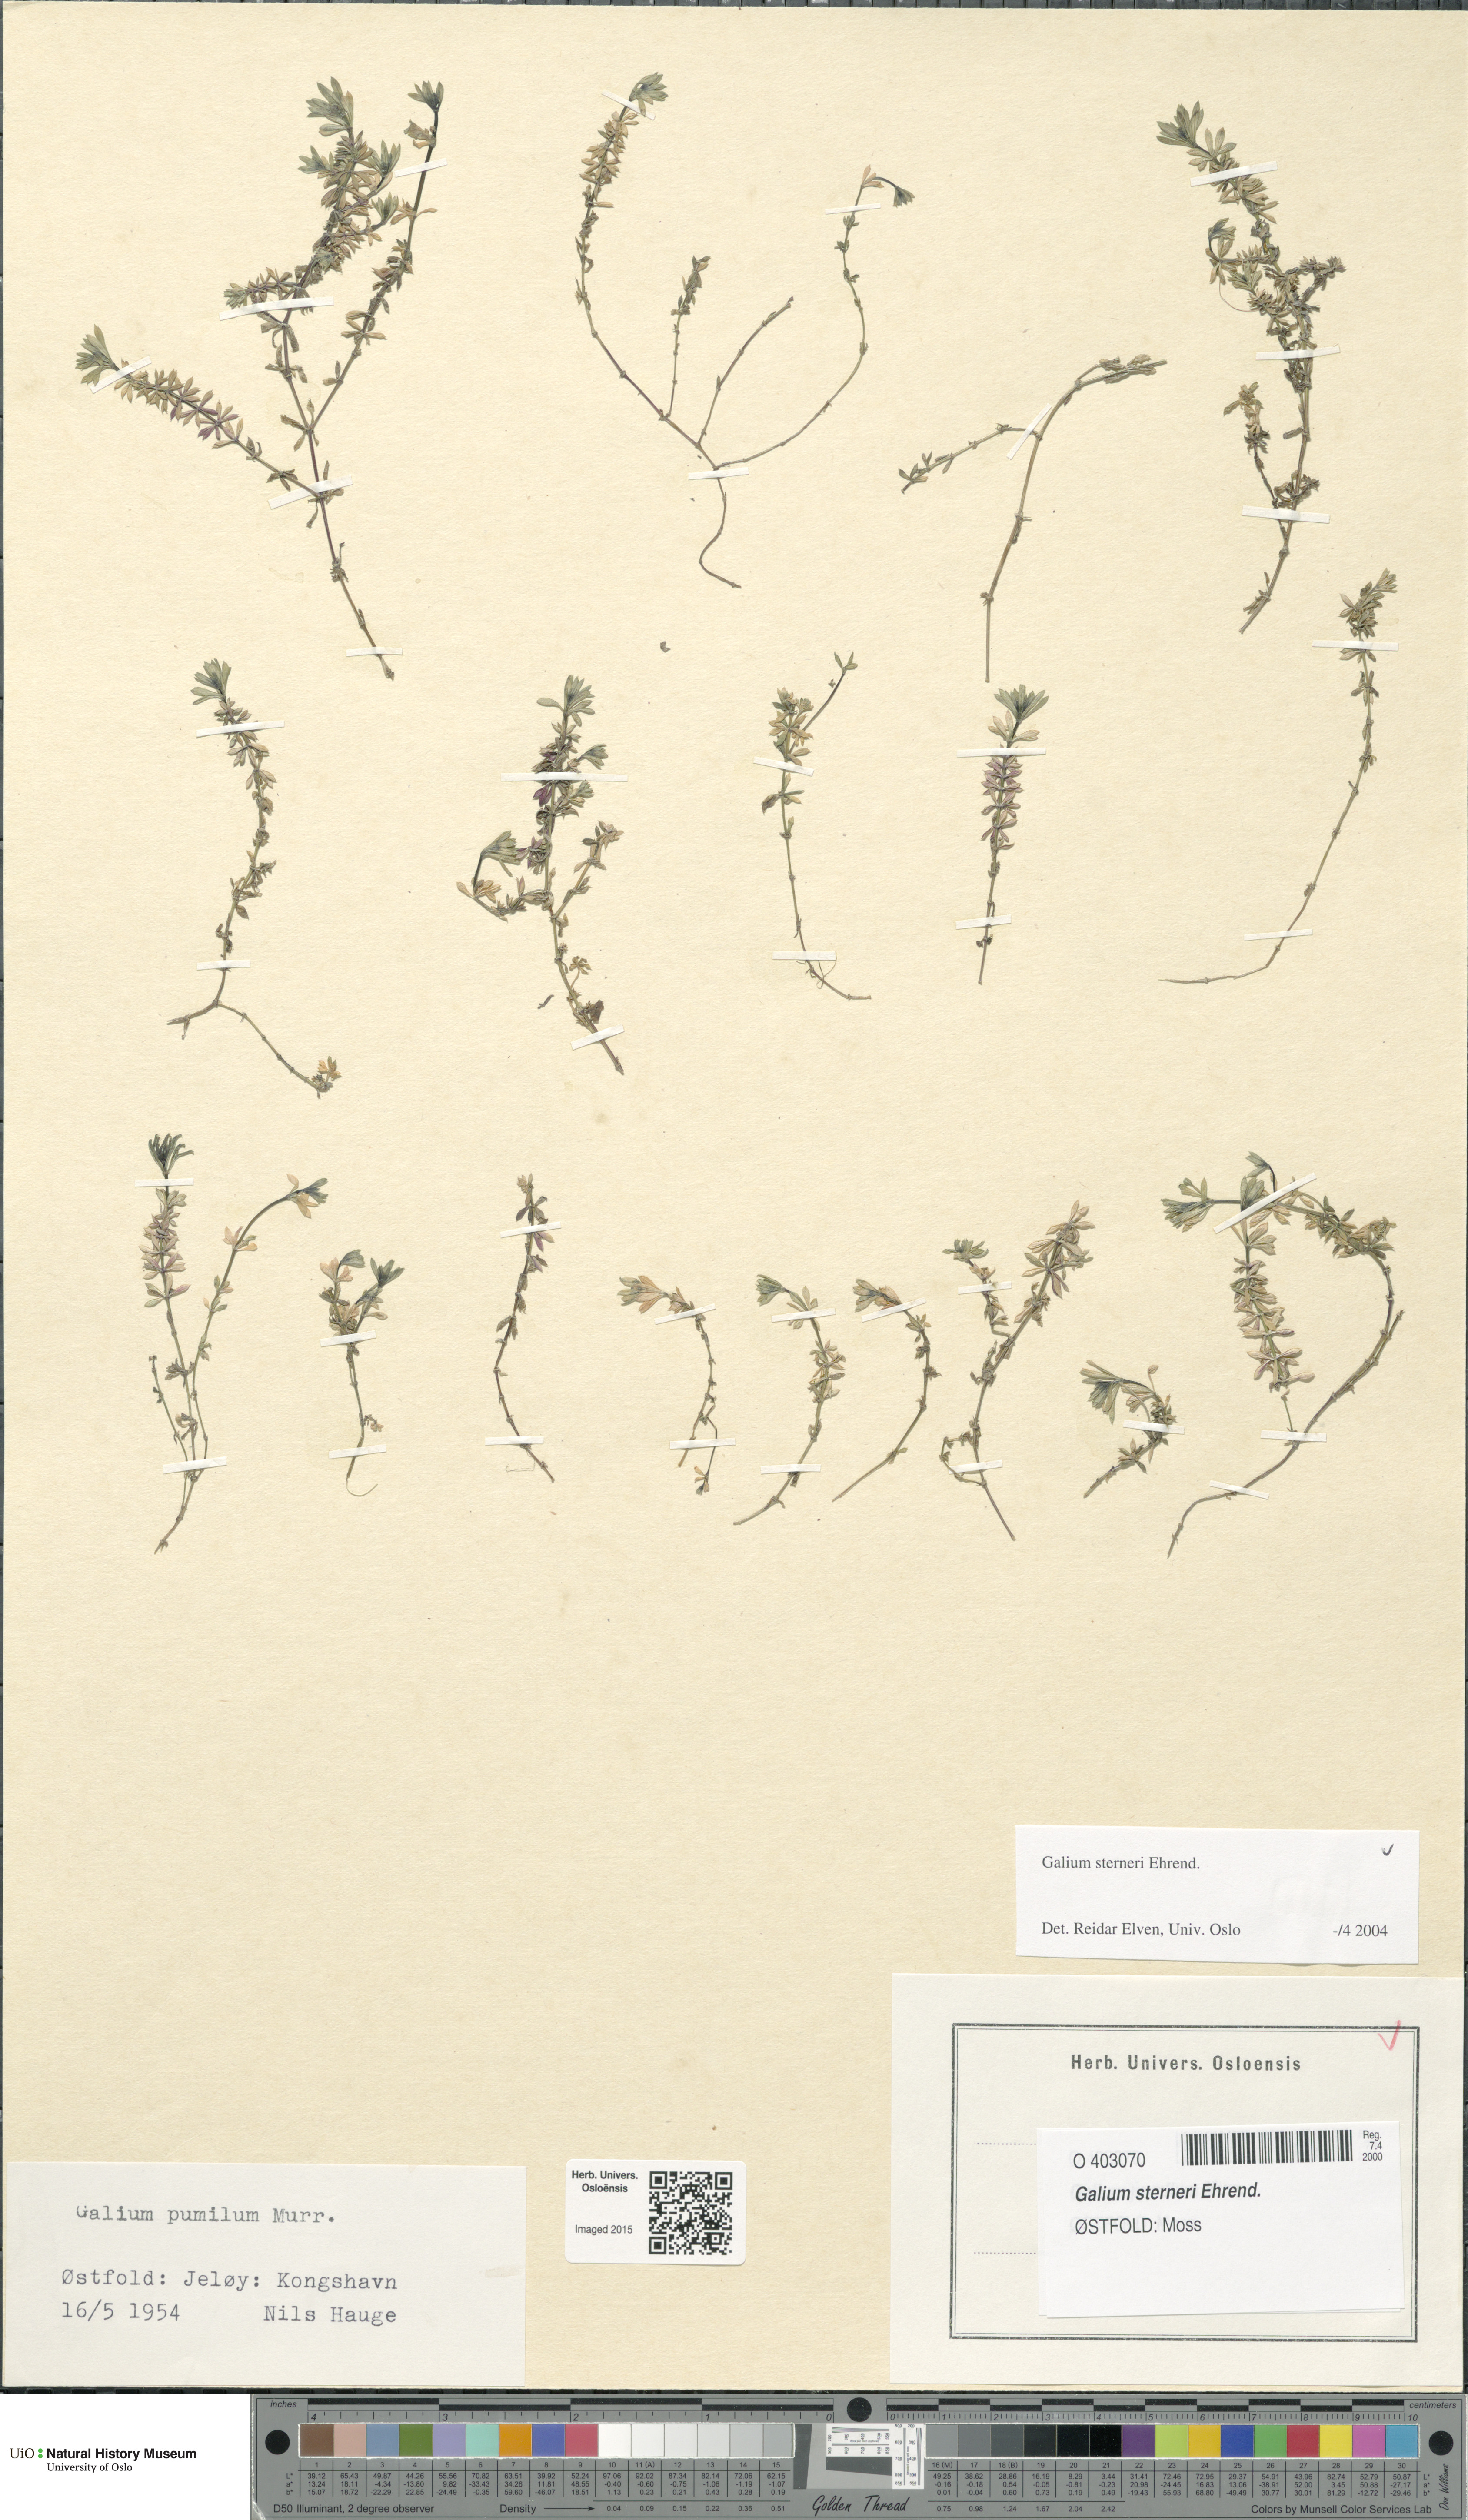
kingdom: Plantae
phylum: Tracheophyta
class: Magnoliopsida
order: Gentianales
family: Rubiaceae
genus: Galium
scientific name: Galium sterneri
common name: Limestone bedstraw
